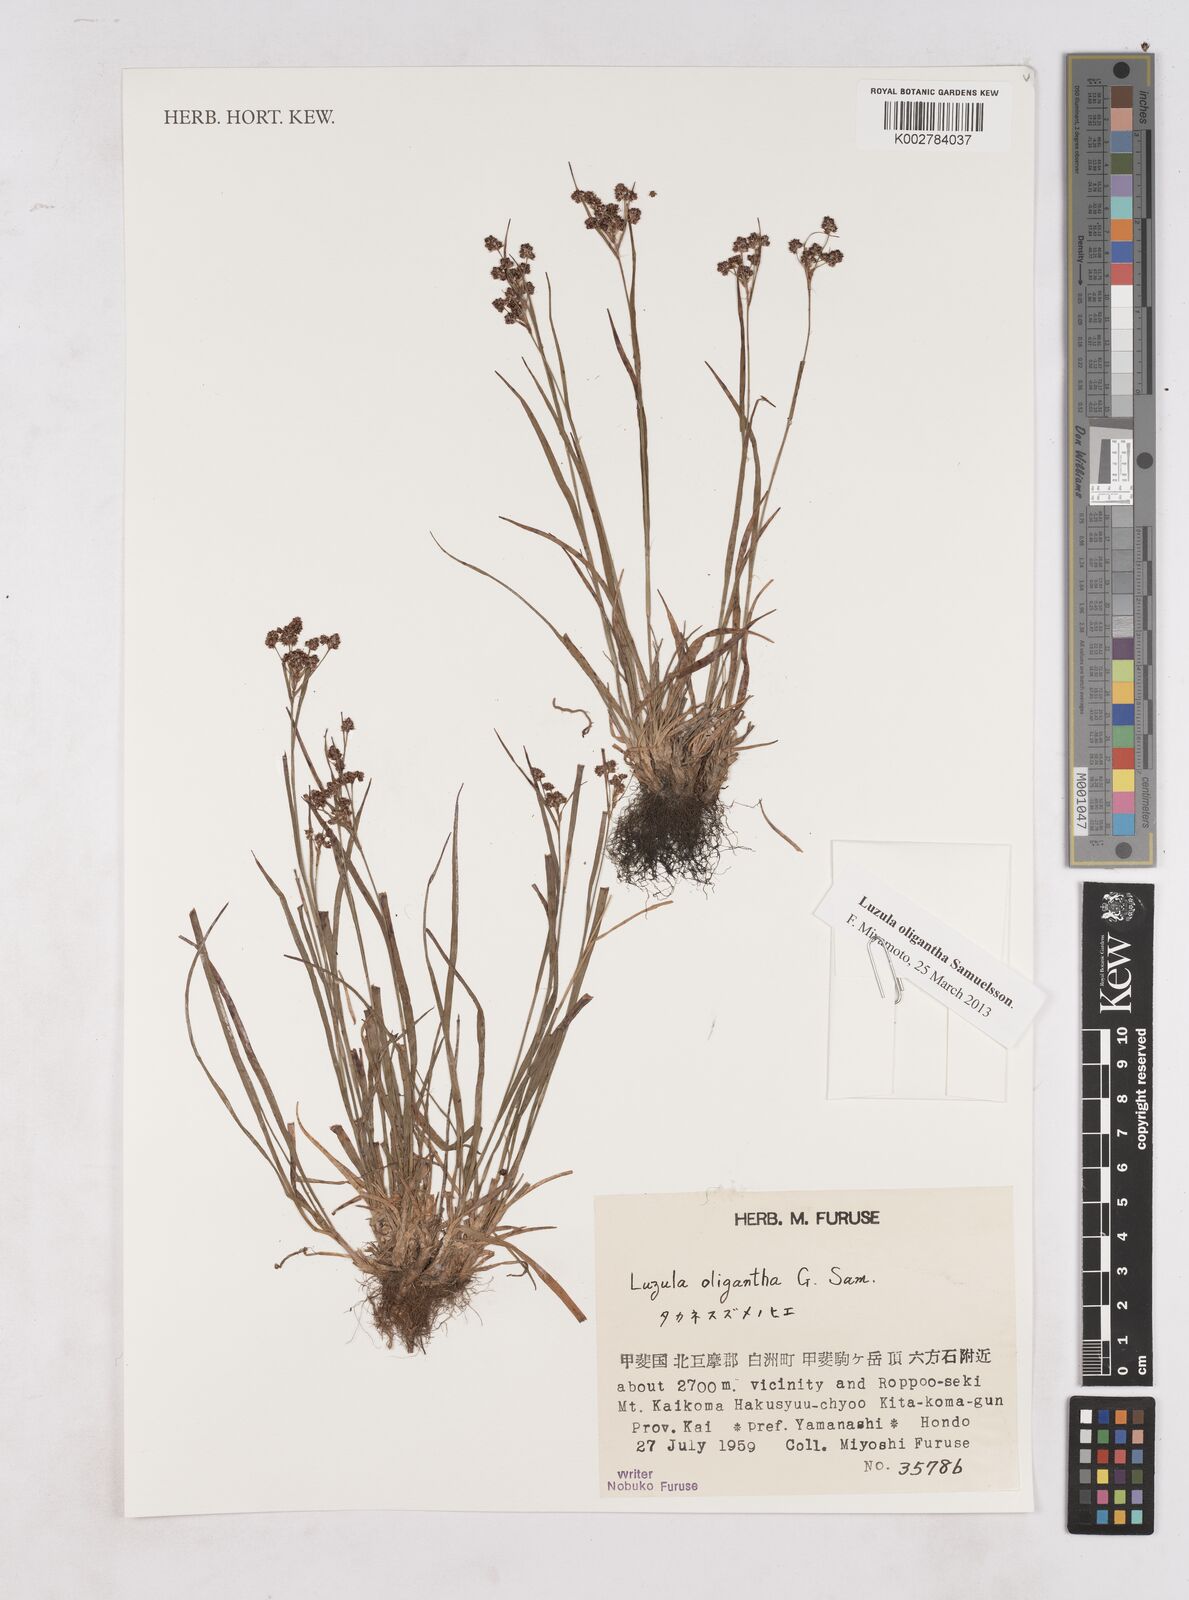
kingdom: Plantae
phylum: Tracheophyta
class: Liliopsida
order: Poales
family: Juncaceae
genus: Luzula
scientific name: Luzula oligantha
